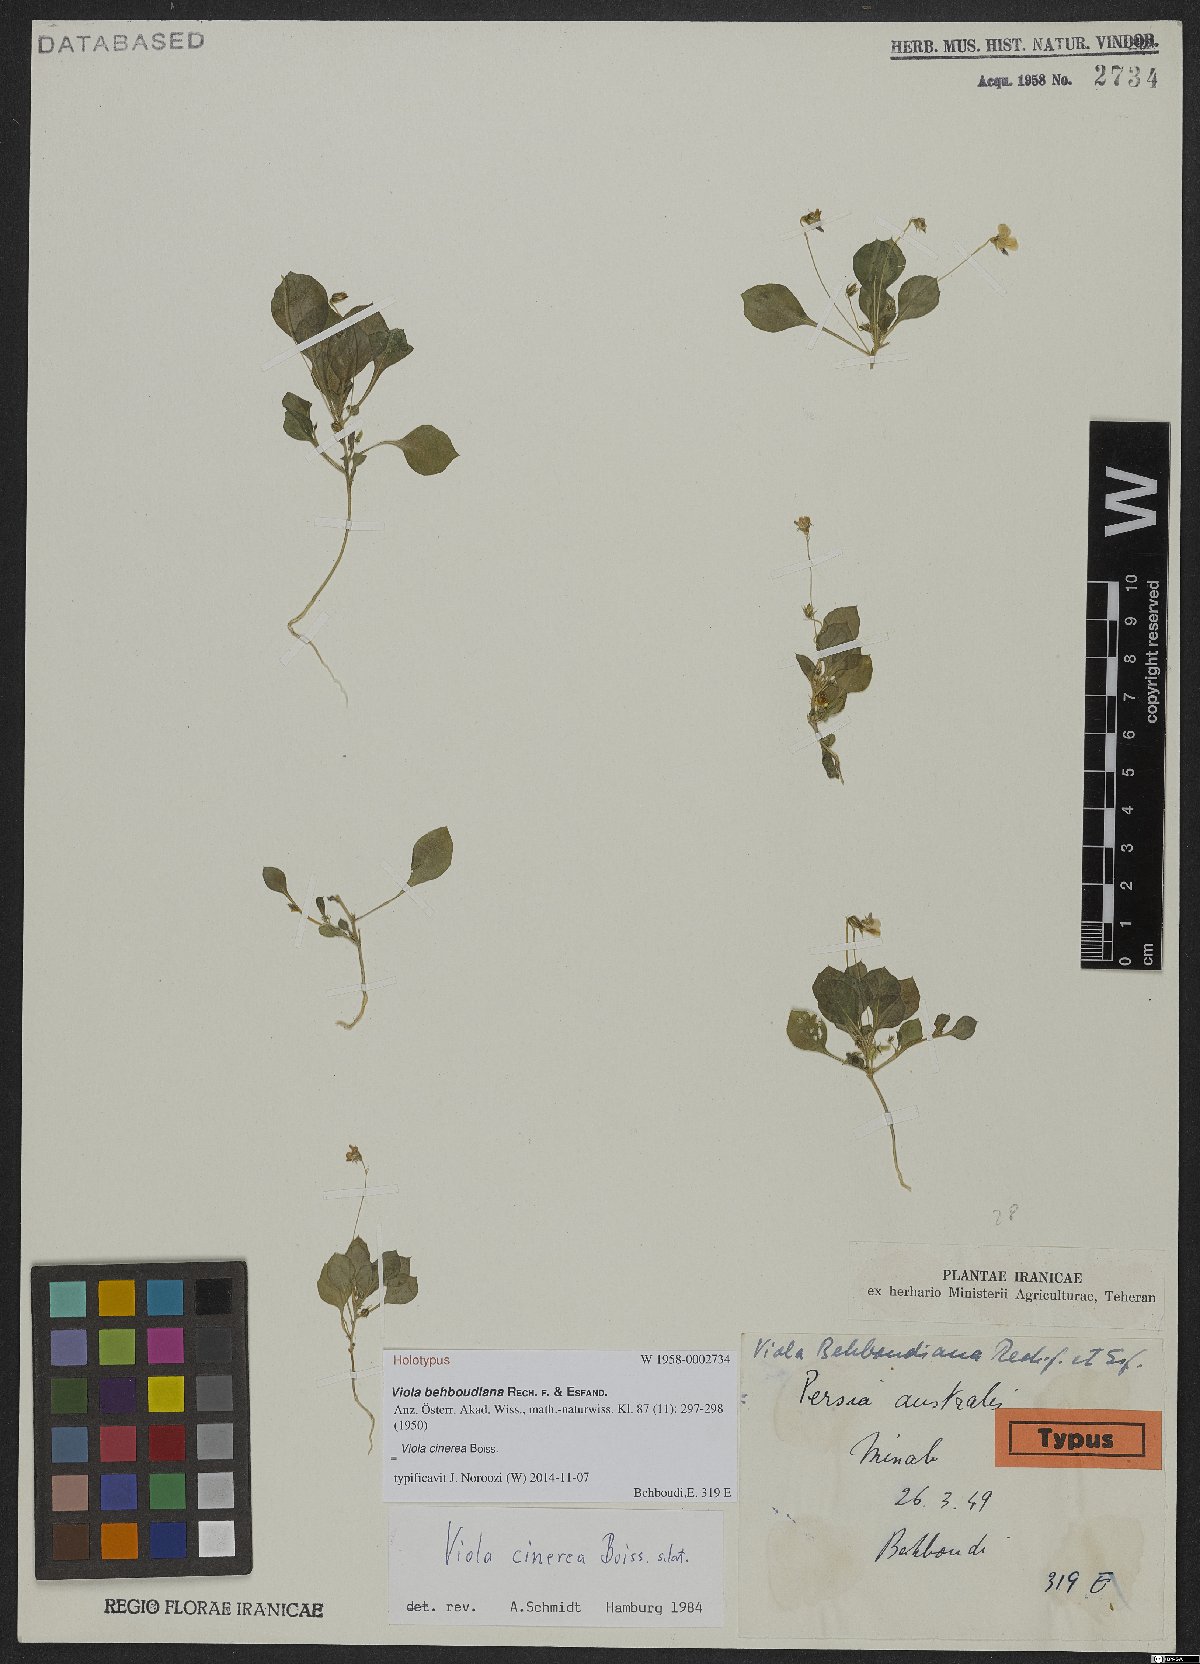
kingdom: Plantae
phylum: Tracheophyta
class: Magnoliopsida
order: Malpighiales
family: Violaceae
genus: Viola
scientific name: Viola cinerea
